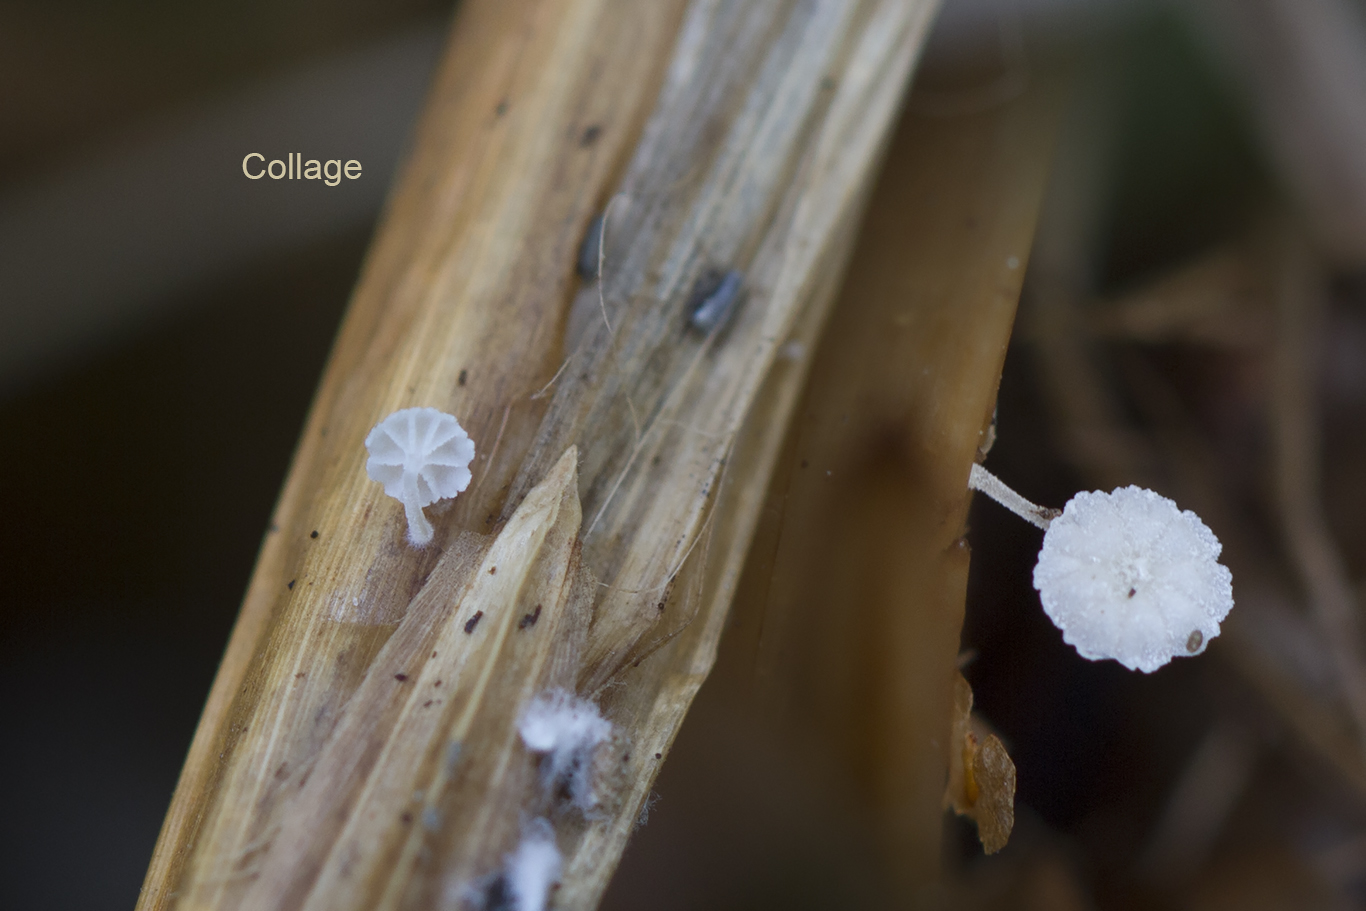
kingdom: Fungi
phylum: Basidiomycota
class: Agaricomycetes
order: Agaricales
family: Mycenaceae
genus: Resinomycena
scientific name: Resinomycena saccharifera
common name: sukkerhat
